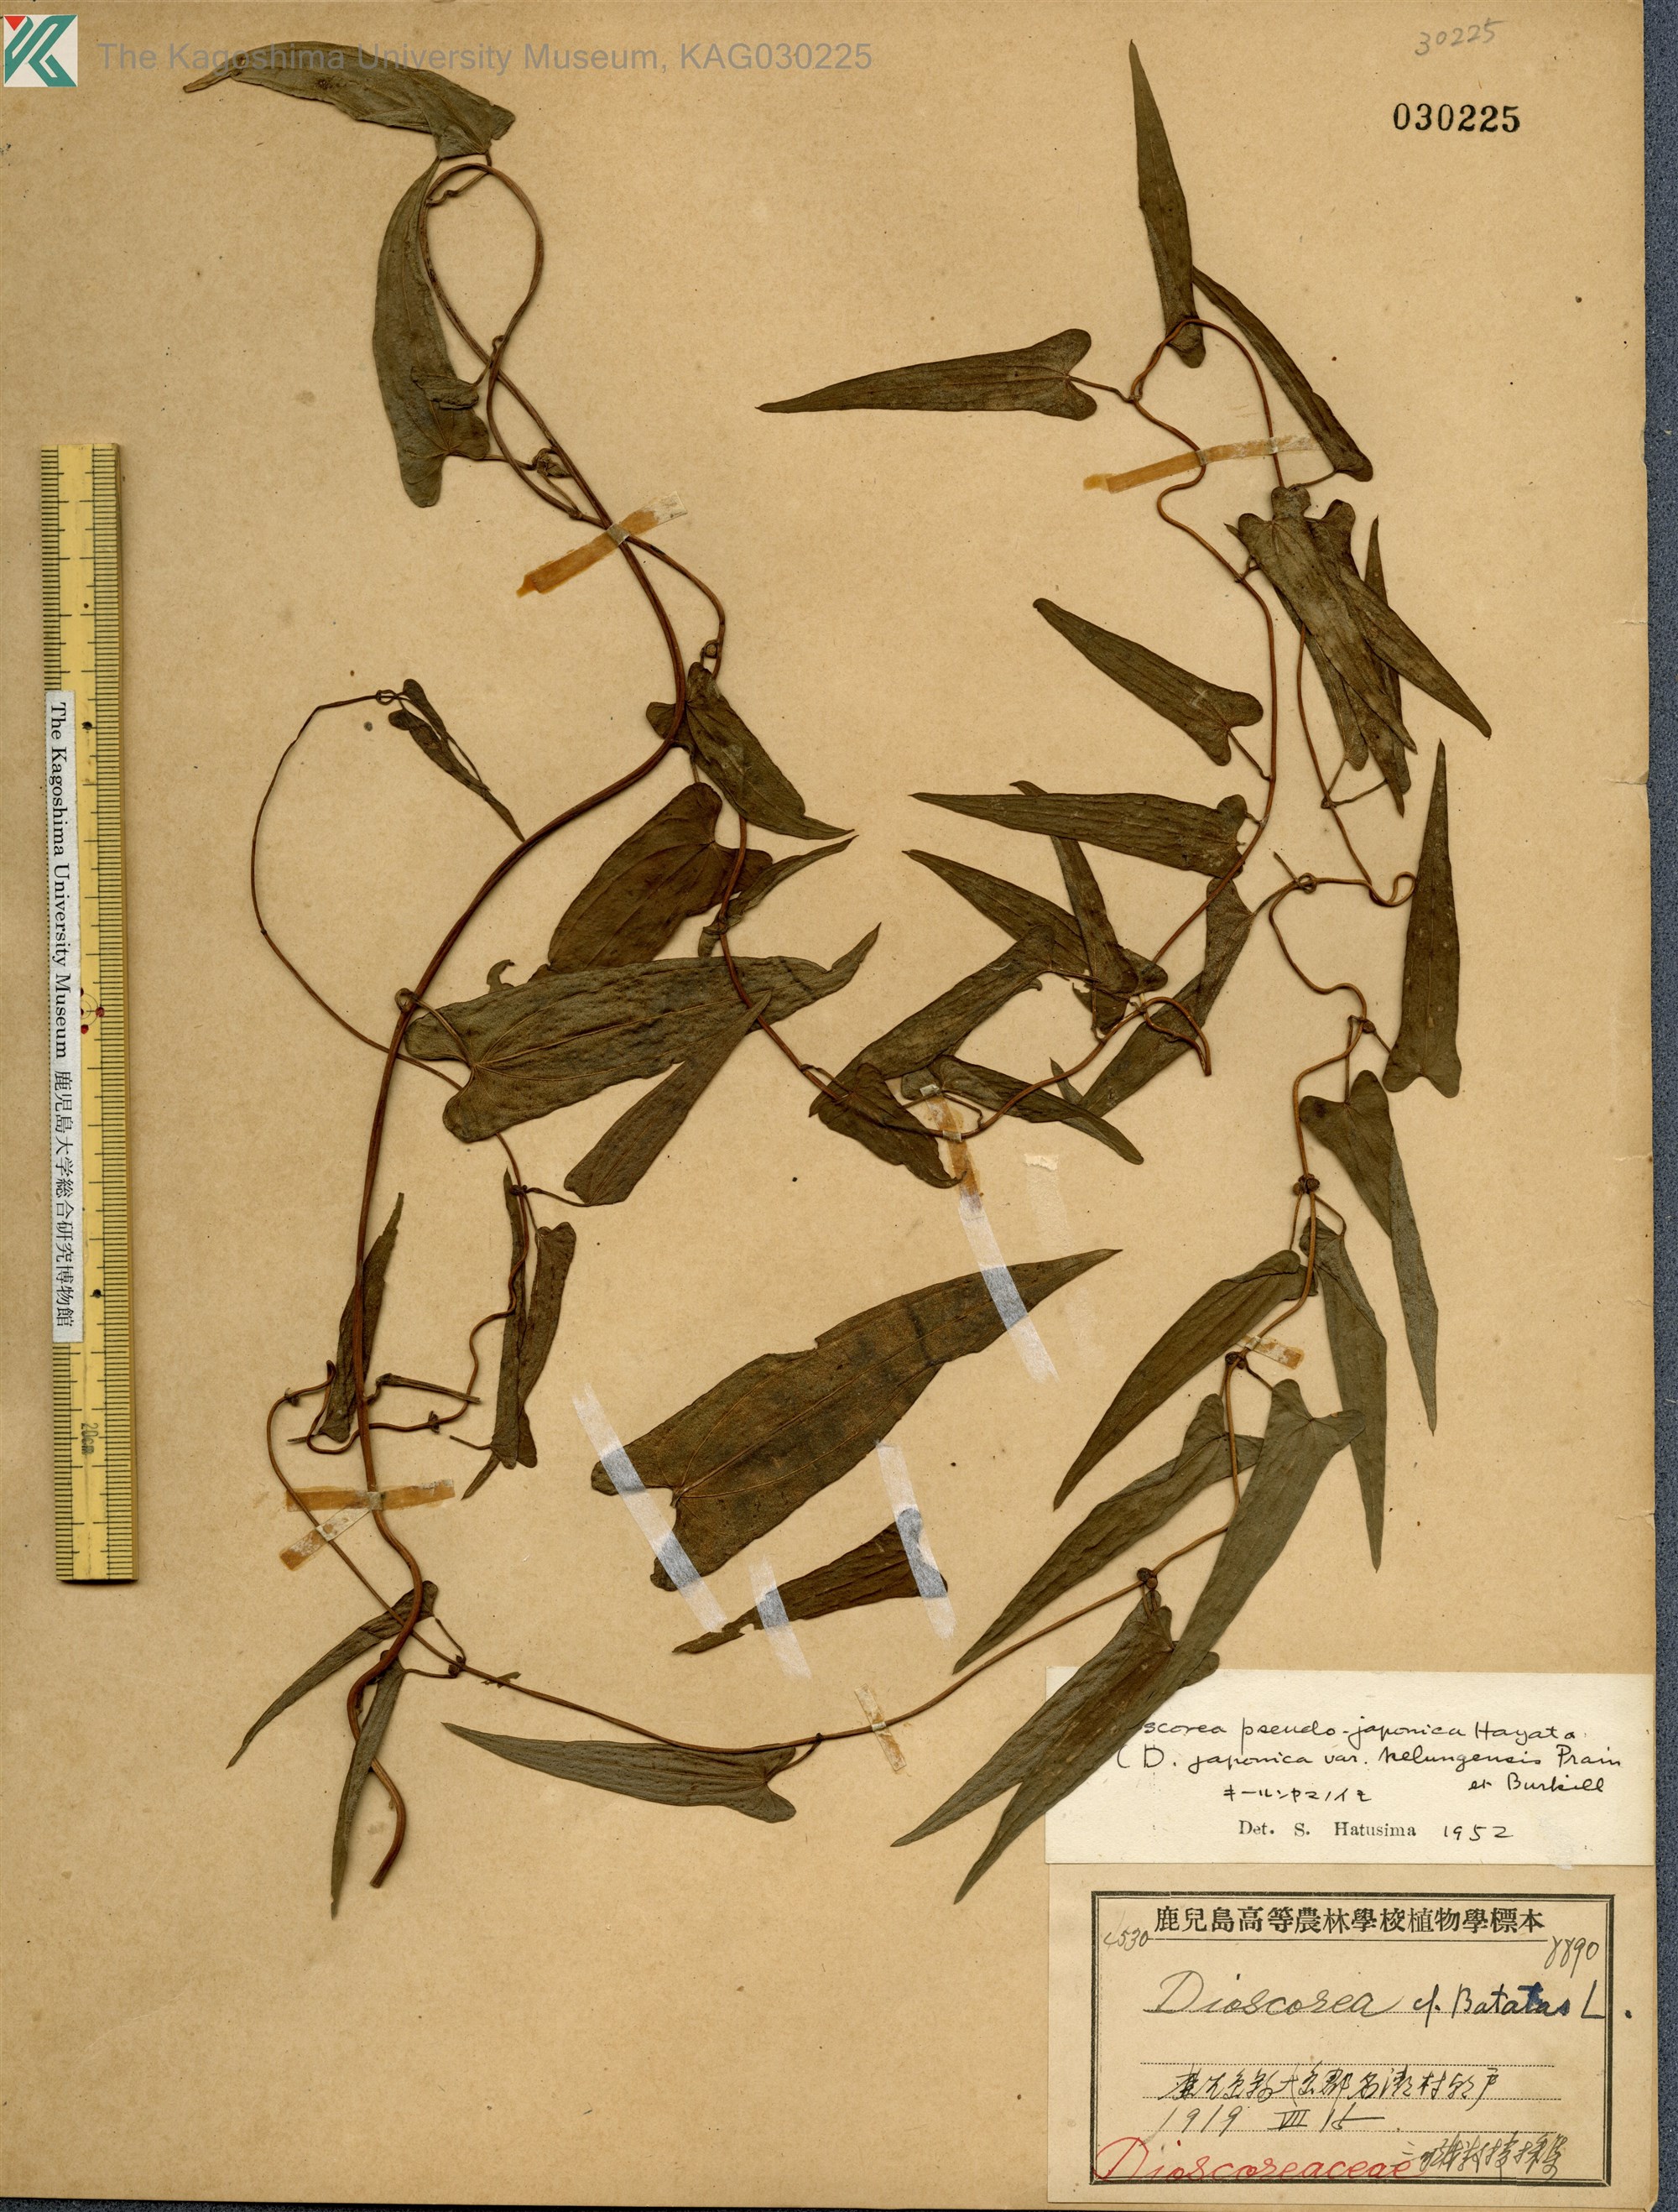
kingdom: Plantae
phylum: Tracheophyta
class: Liliopsida
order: Dioscoreales
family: Dioscoreaceae
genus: Dioscorea
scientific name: Dioscorea pseudojaponica
